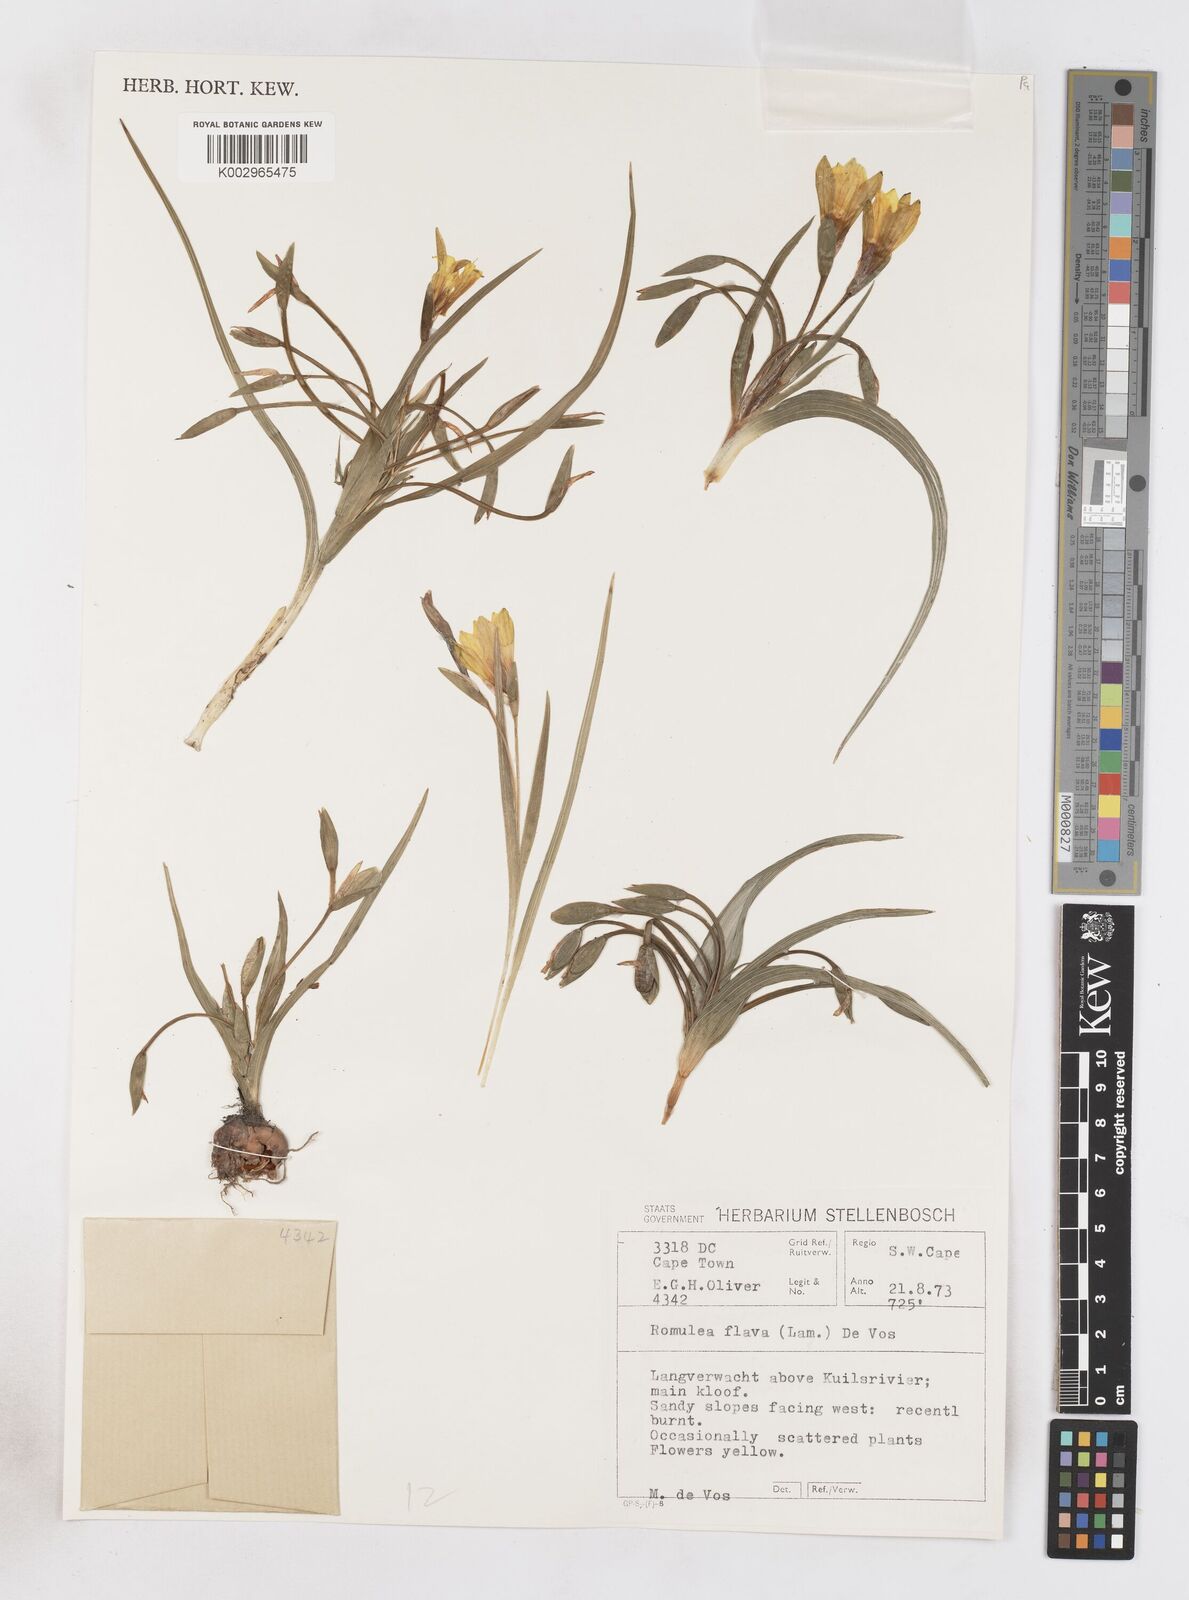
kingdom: Plantae
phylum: Tracheophyta
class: Liliopsida
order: Asparagales
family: Iridaceae
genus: Romulea
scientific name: Romulea flava
